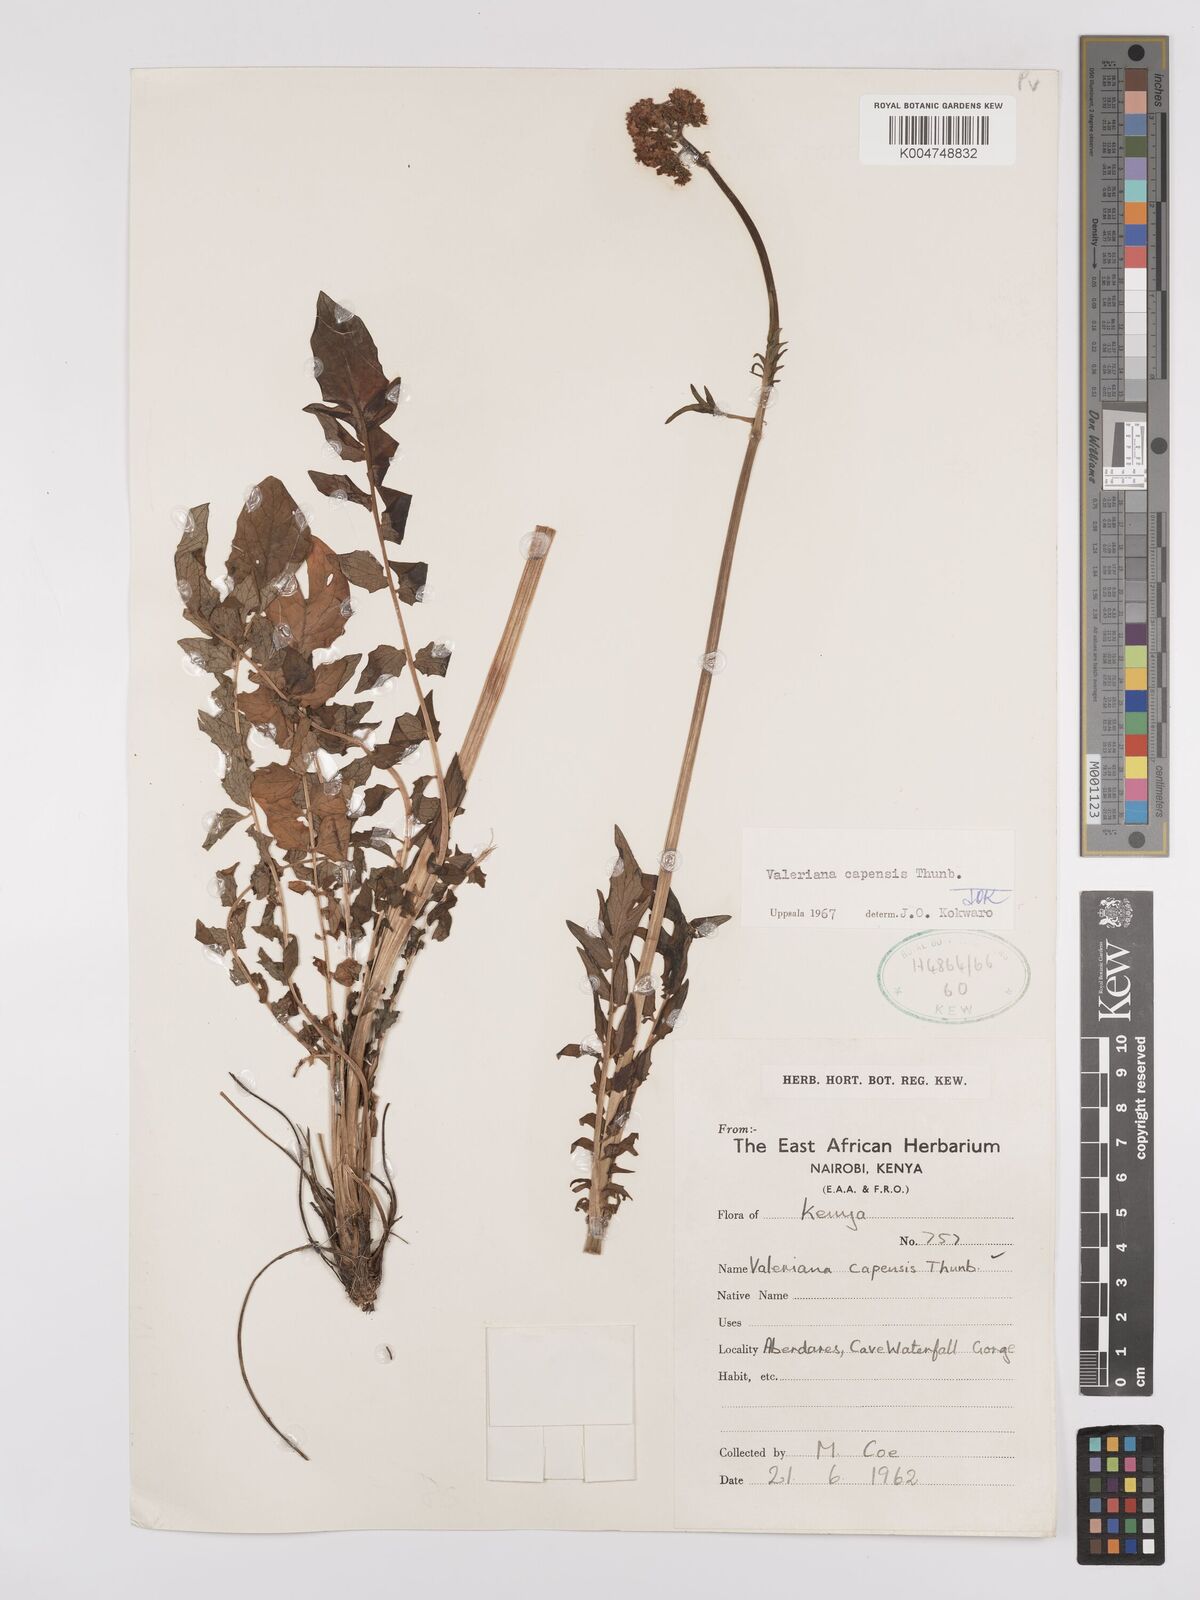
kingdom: Plantae
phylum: Tracheophyta
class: Magnoliopsida
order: Dipsacales
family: Caprifoliaceae
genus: Valeriana
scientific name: Valeriana capensis
